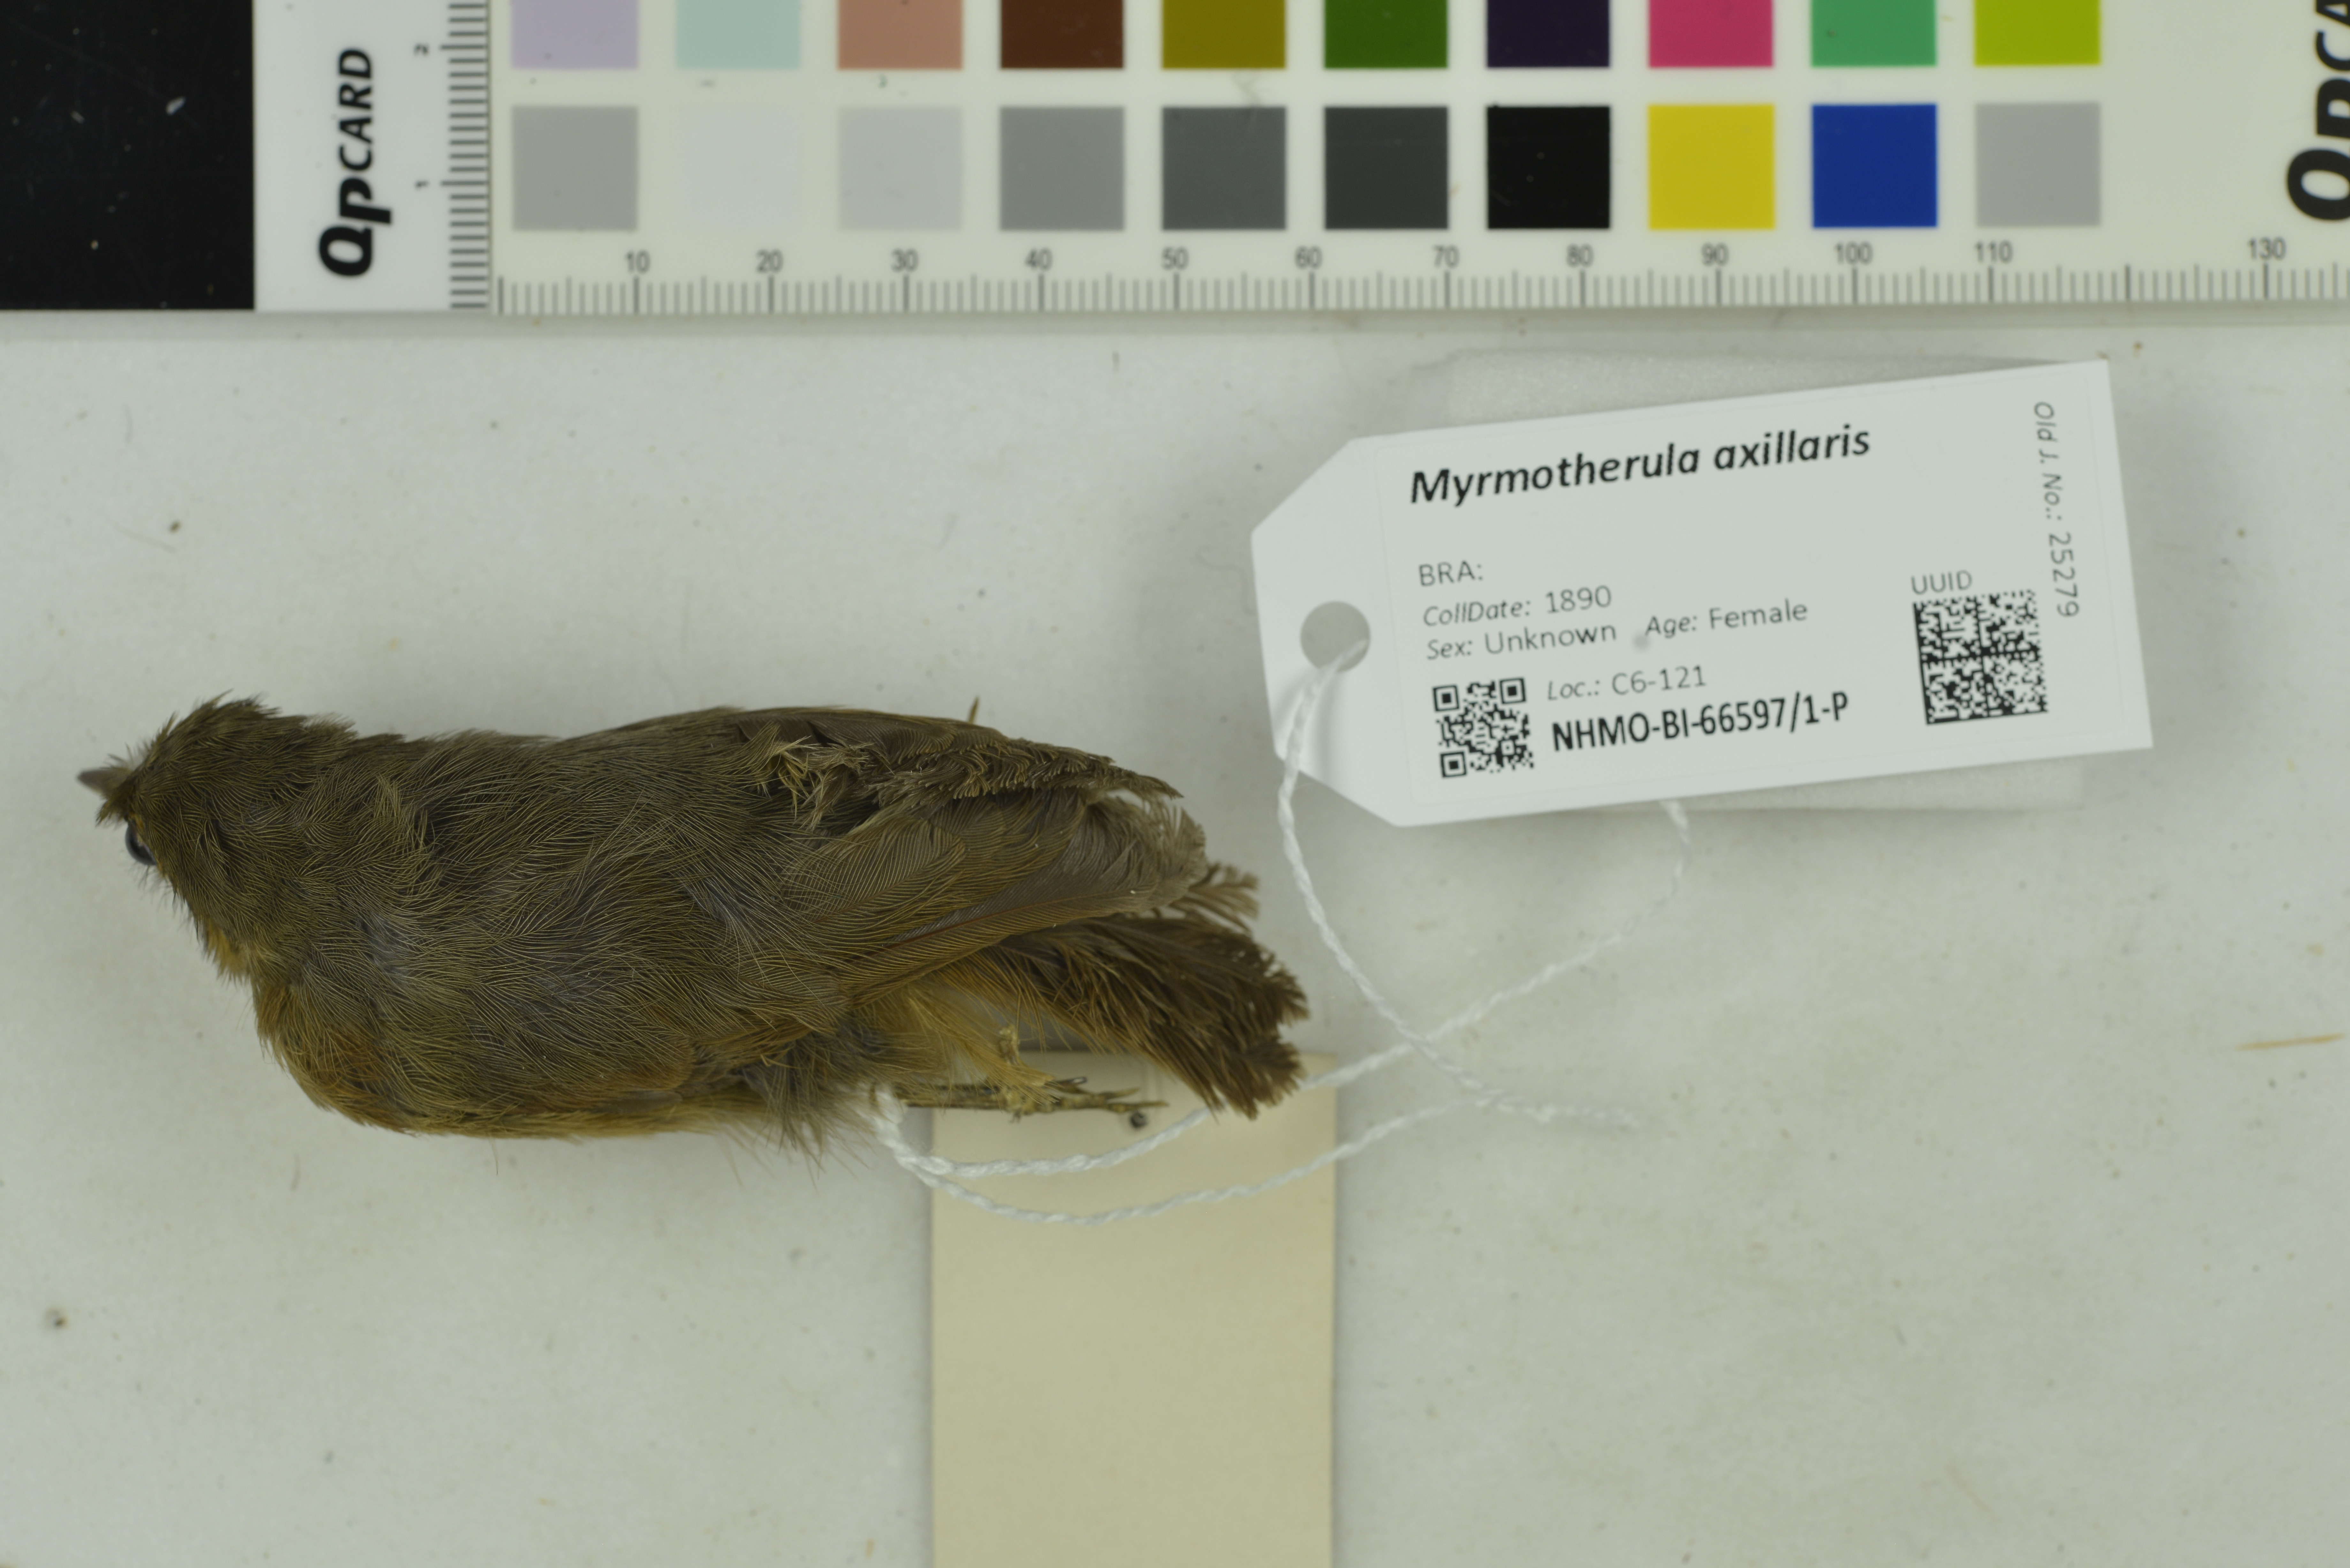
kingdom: Animalia
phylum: Chordata
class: Aves
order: Passeriformes
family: Thamnophilidae
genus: Myrmotherula
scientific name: Myrmotherula axillaris
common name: White-flanked antwren
